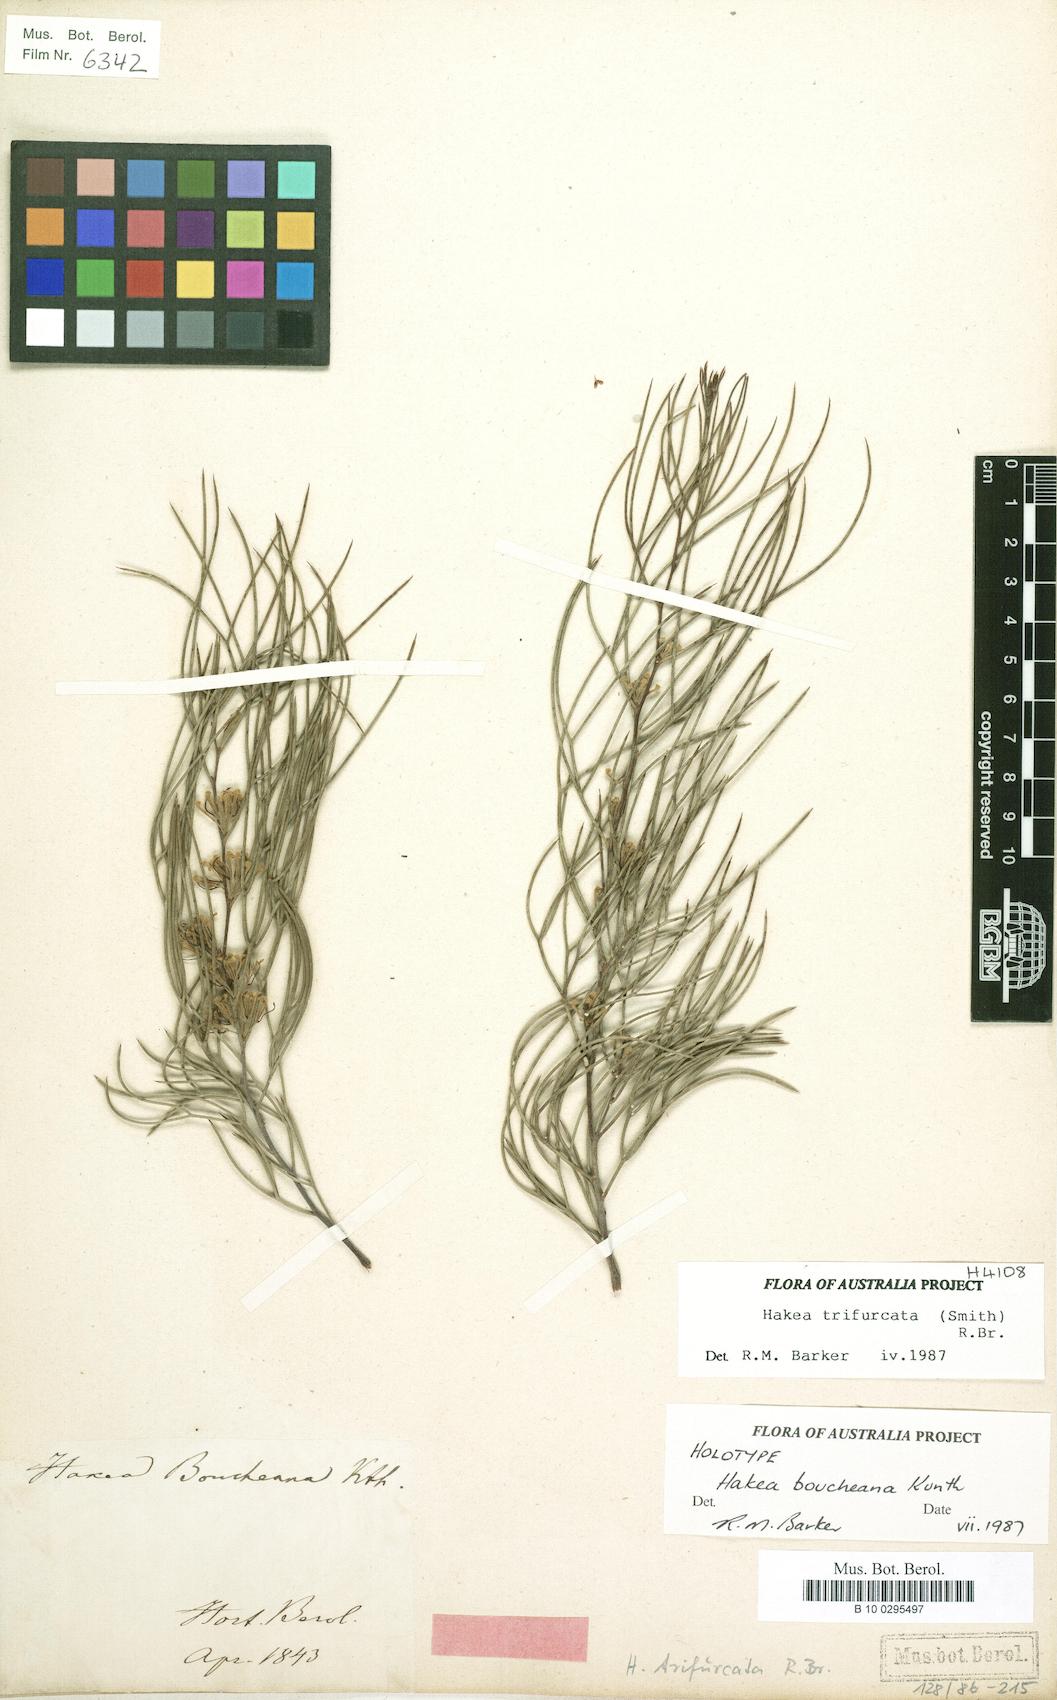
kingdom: Plantae
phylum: Tracheophyta
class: Magnoliopsida
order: Proteales
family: Proteaceae
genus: Hakea
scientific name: Hakea trifurcata
